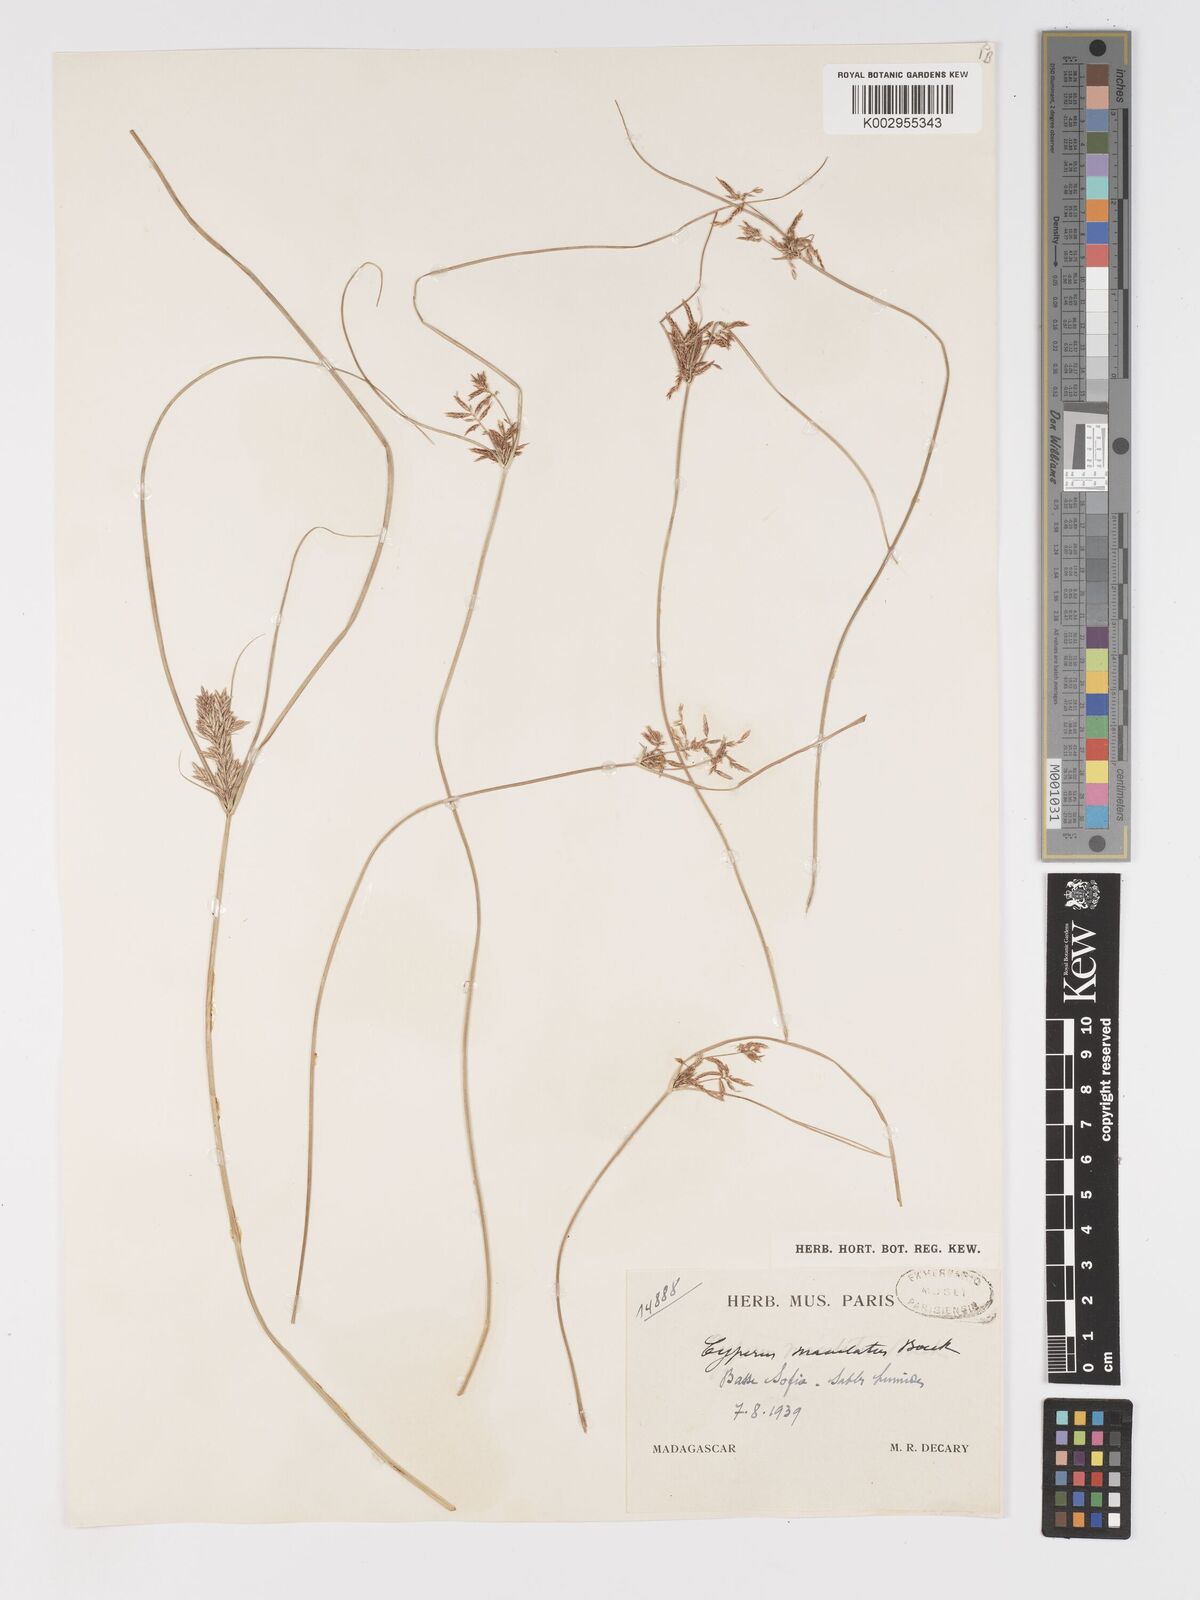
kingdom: Plantae
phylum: Tracheophyta
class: Liliopsida
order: Poales
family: Cyperaceae
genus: Cyperus
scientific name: Cyperus maculatus
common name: Maculated sedge
